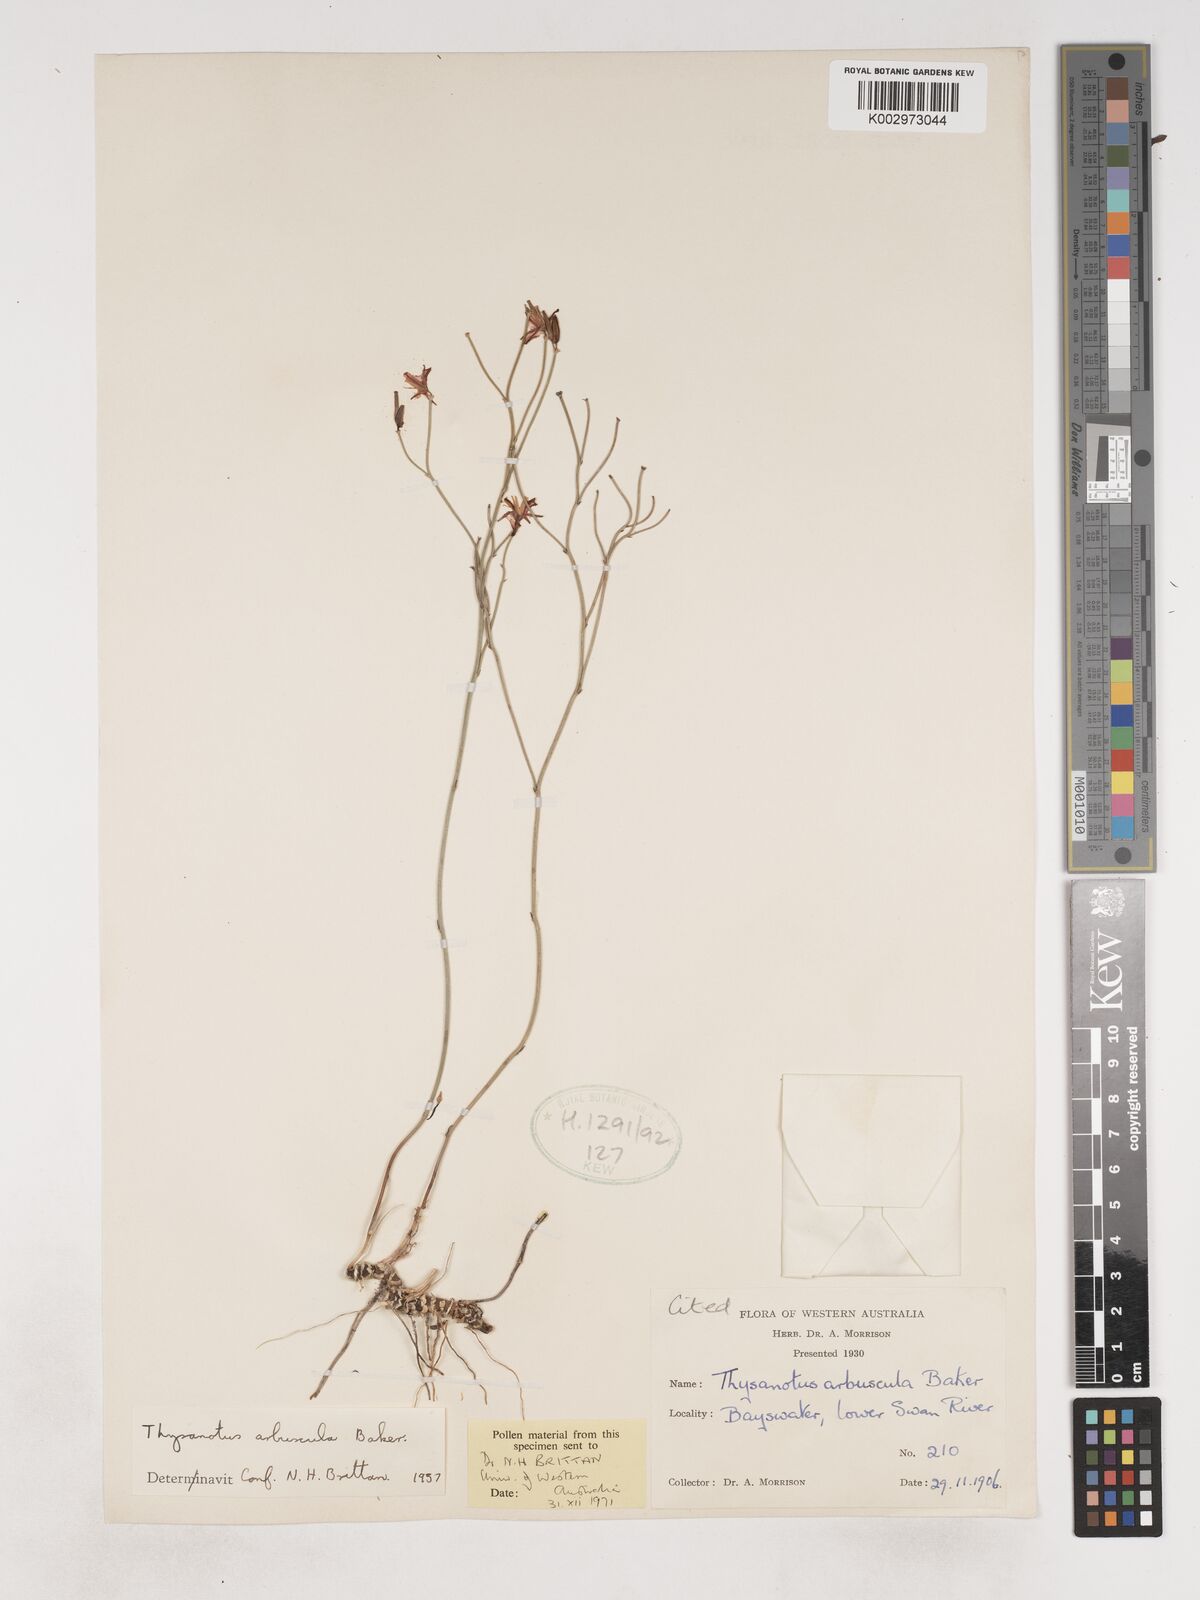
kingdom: Plantae
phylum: Tracheophyta
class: Liliopsida
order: Asparagales
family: Asparagaceae
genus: Thysanotus
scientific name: Thysanotus arbuscula
